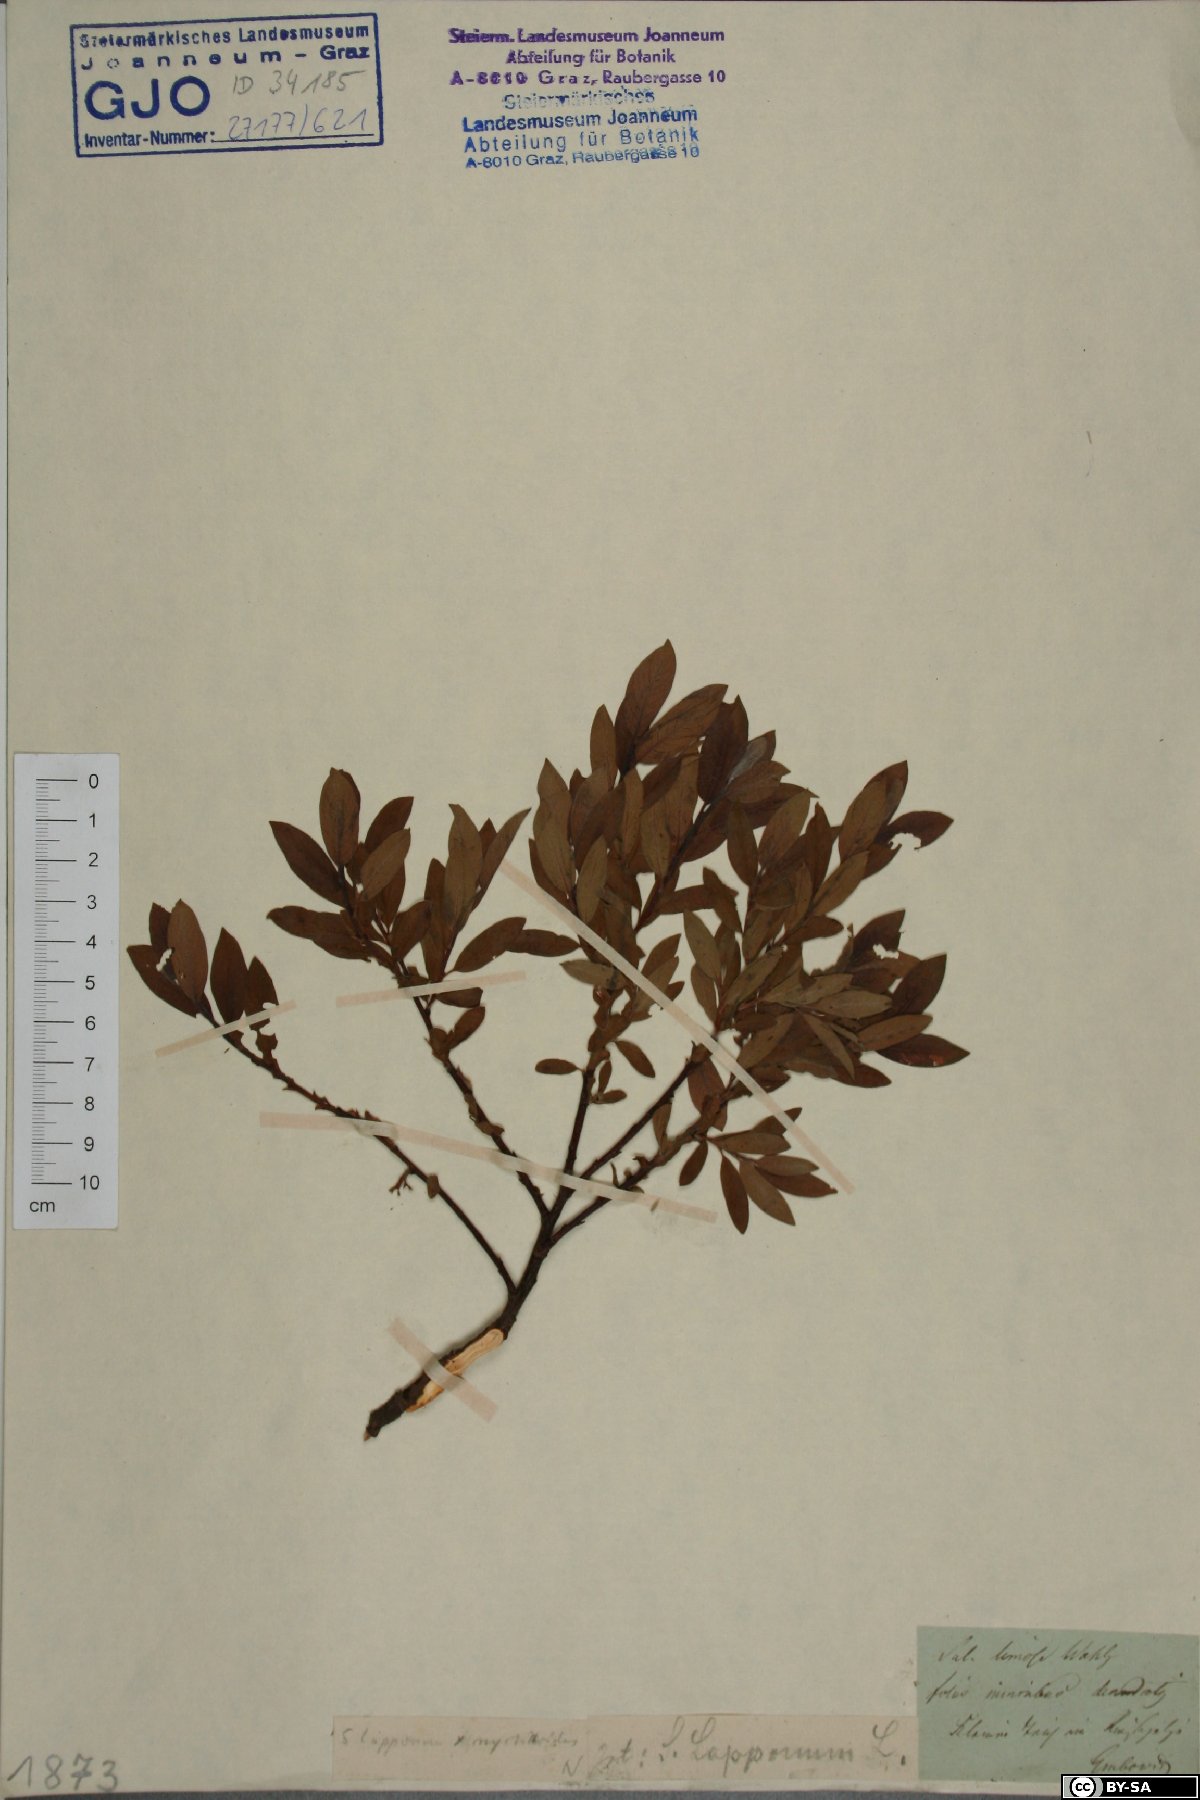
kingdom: Plantae
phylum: Tracheophyta
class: Magnoliopsida
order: Malpighiales
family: Salicaceae
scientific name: Salicaceae
